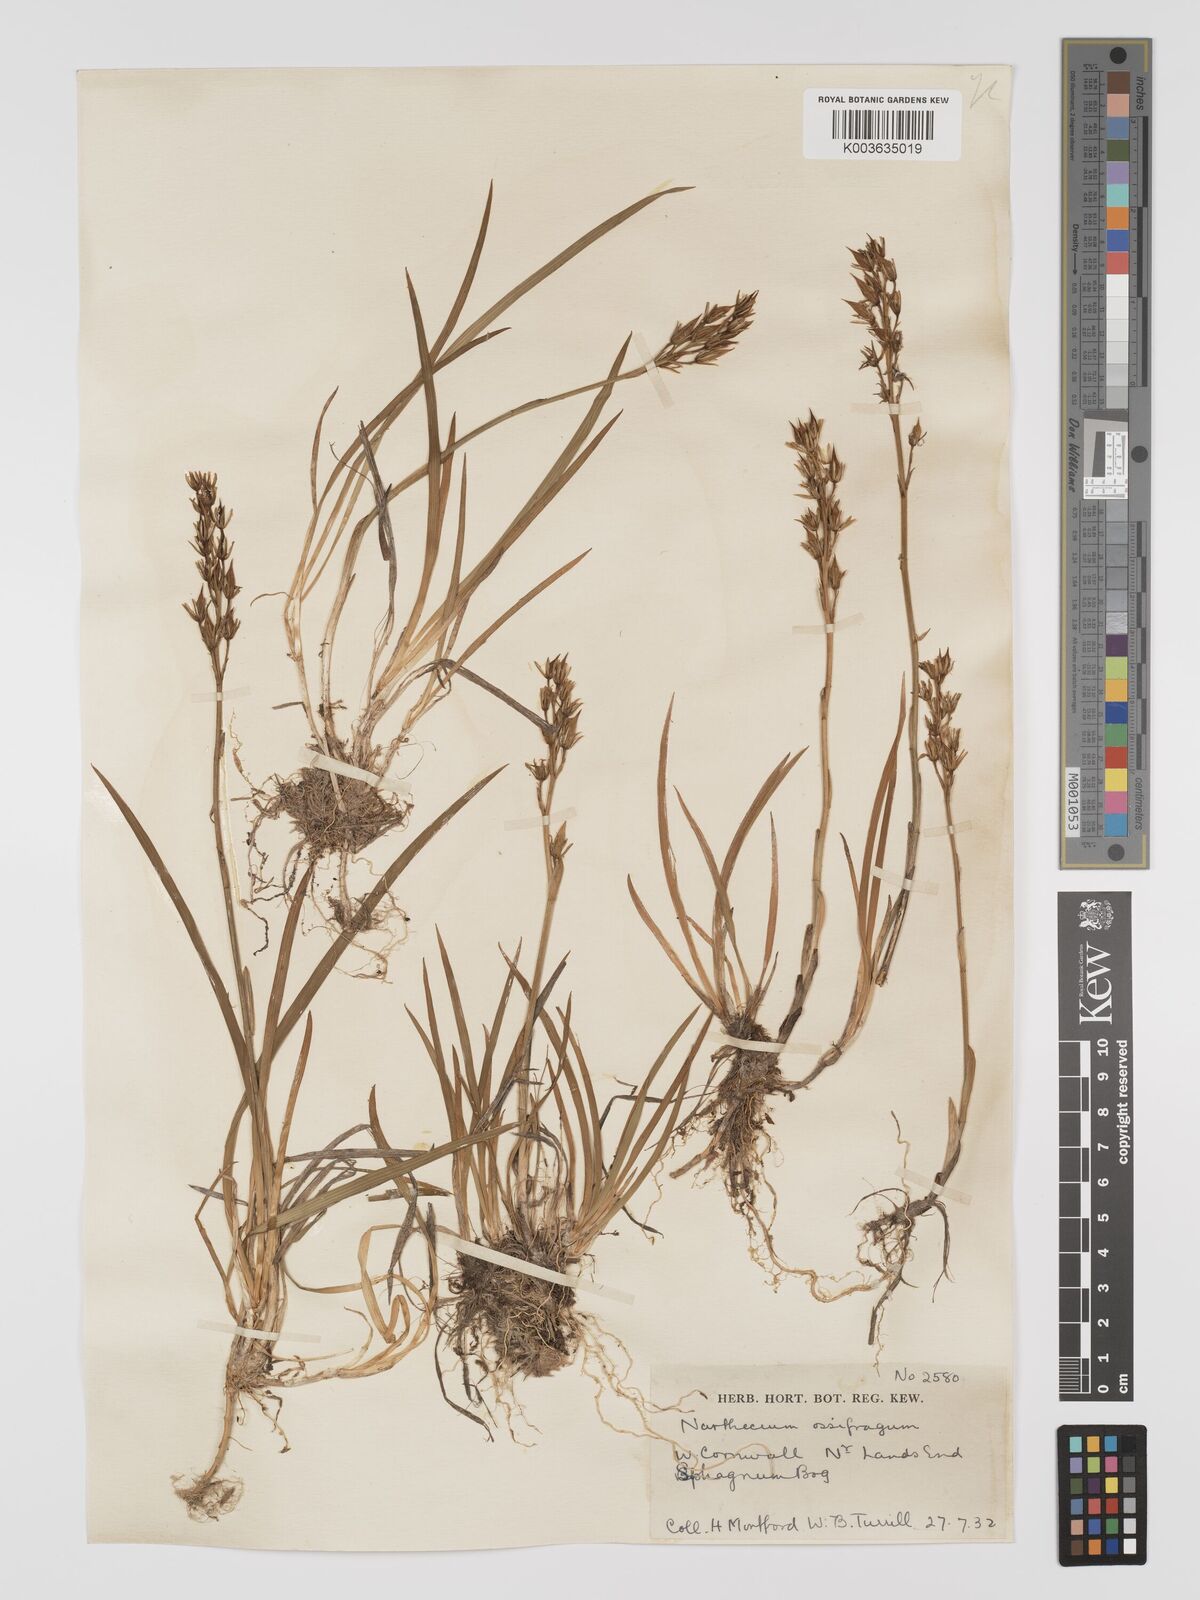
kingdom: Plantae
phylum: Tracheophyta
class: Liliopsida
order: Dioscoreales
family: Nartheciaceae
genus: Narthecium
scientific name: Narthecium ossifragum
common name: Bog asphodel
